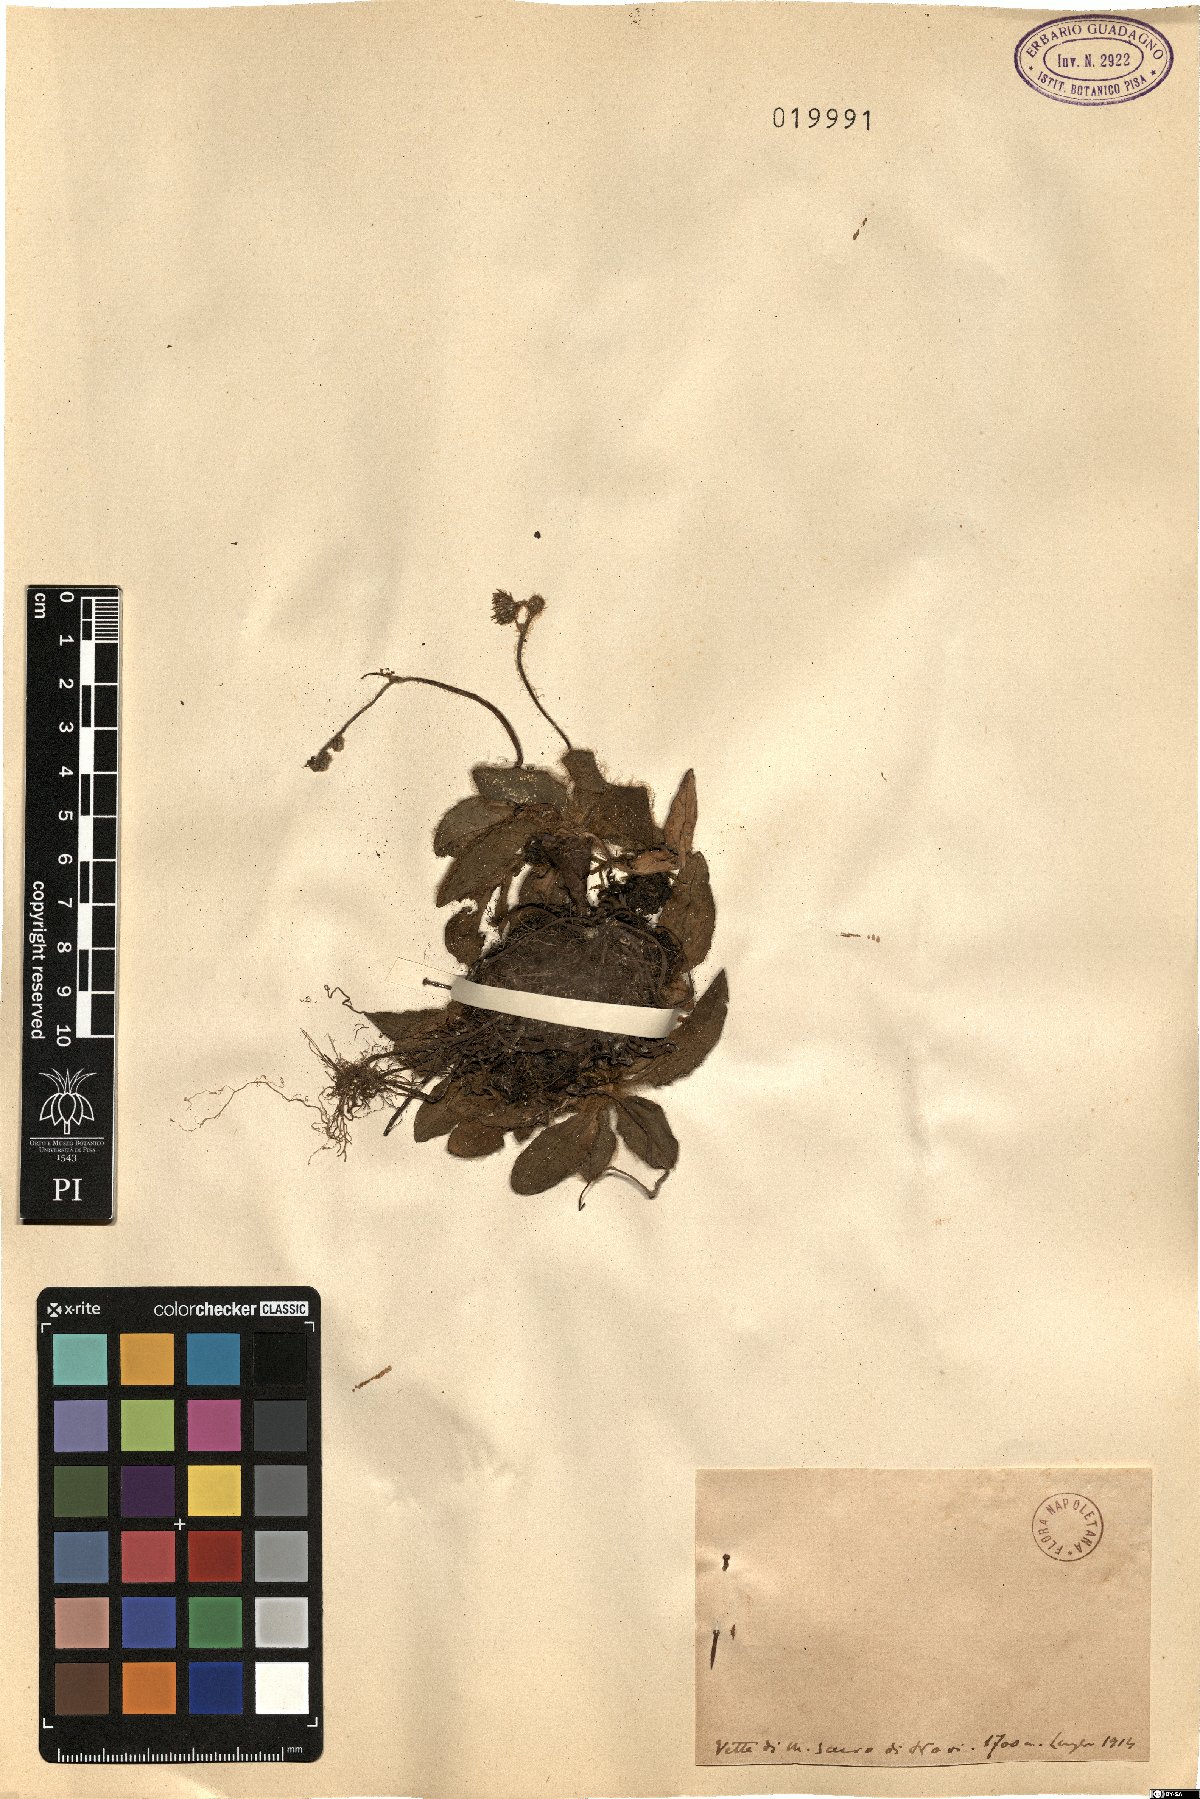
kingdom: Plantae
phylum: Tracheophyta
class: Magnoliopsida
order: Asterales
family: Asteraceae
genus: Hieracium
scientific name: Hieracium
